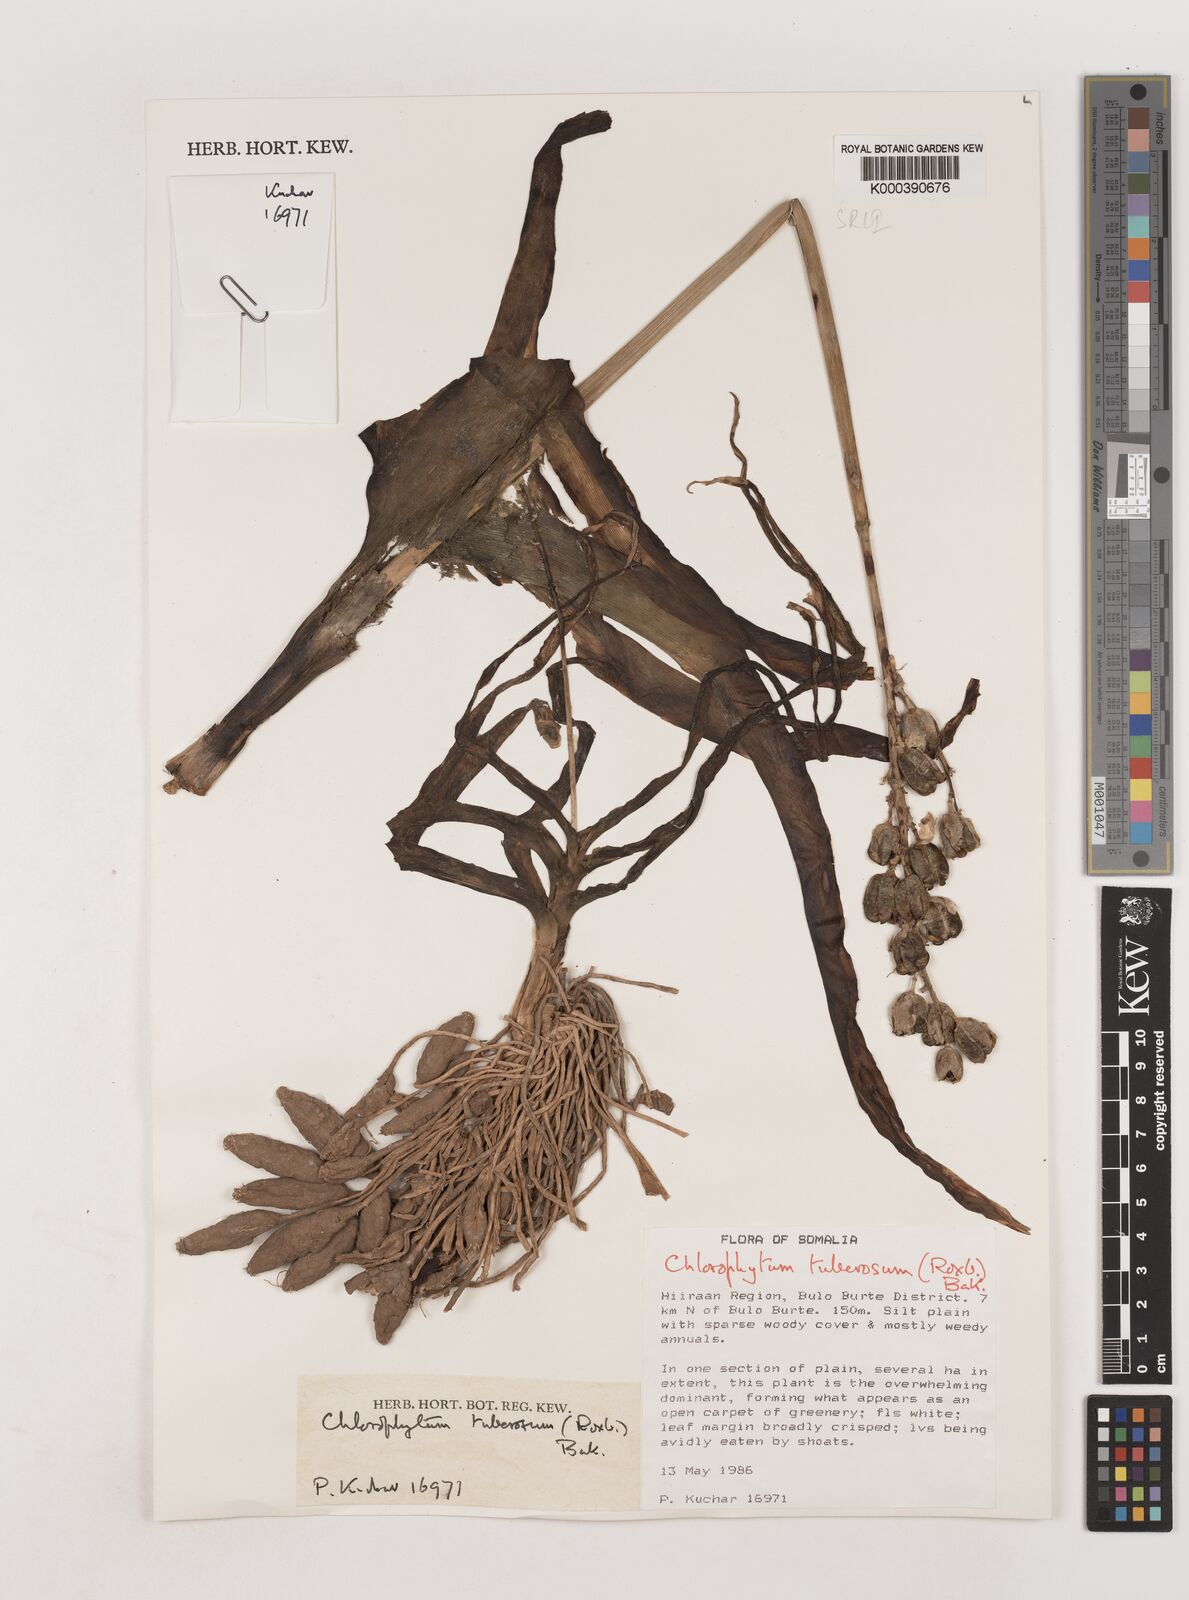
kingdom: Plantae
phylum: Tracheophyta
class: Liliopsida
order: Asparagales
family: Asparagaceae
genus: Chlorophytum
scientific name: Chlorophytum tuberosum
